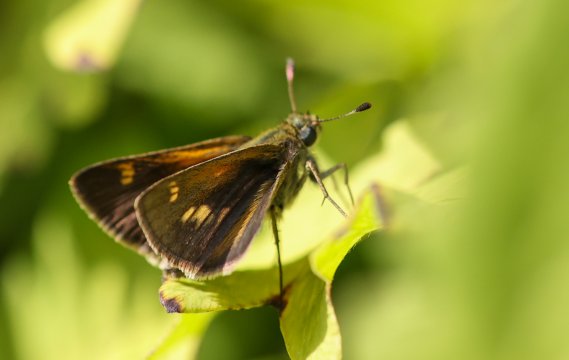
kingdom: Animalia
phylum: Arthropoda
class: Insecta
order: Lepidoptera
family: Hesperiidae
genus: Polites
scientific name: Polites themistocles
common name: Tawny-edged Skipper
